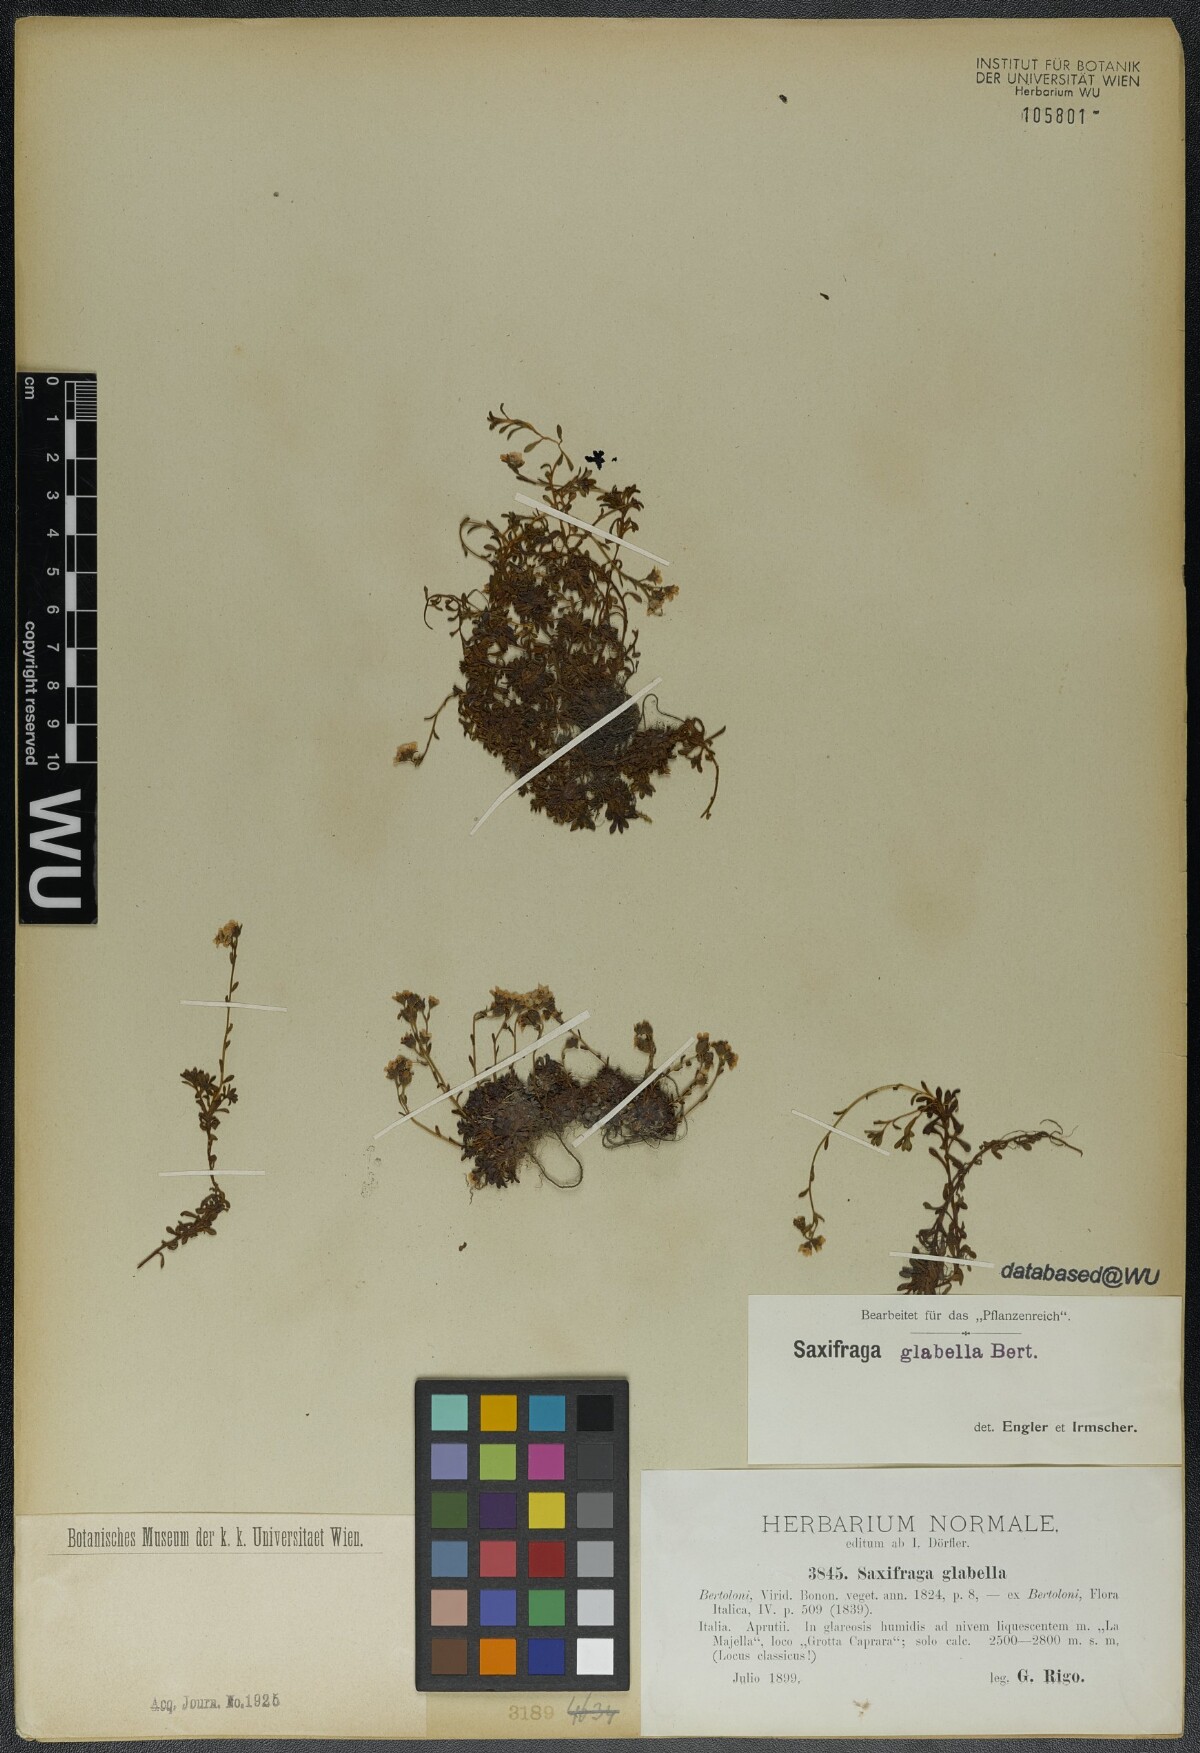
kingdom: Plantae
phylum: Tracheophyta
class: Magnoliopsida
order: Saxifragales
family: Saxifragaceae
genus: Saxifraga
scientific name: Saxifraga glabella
